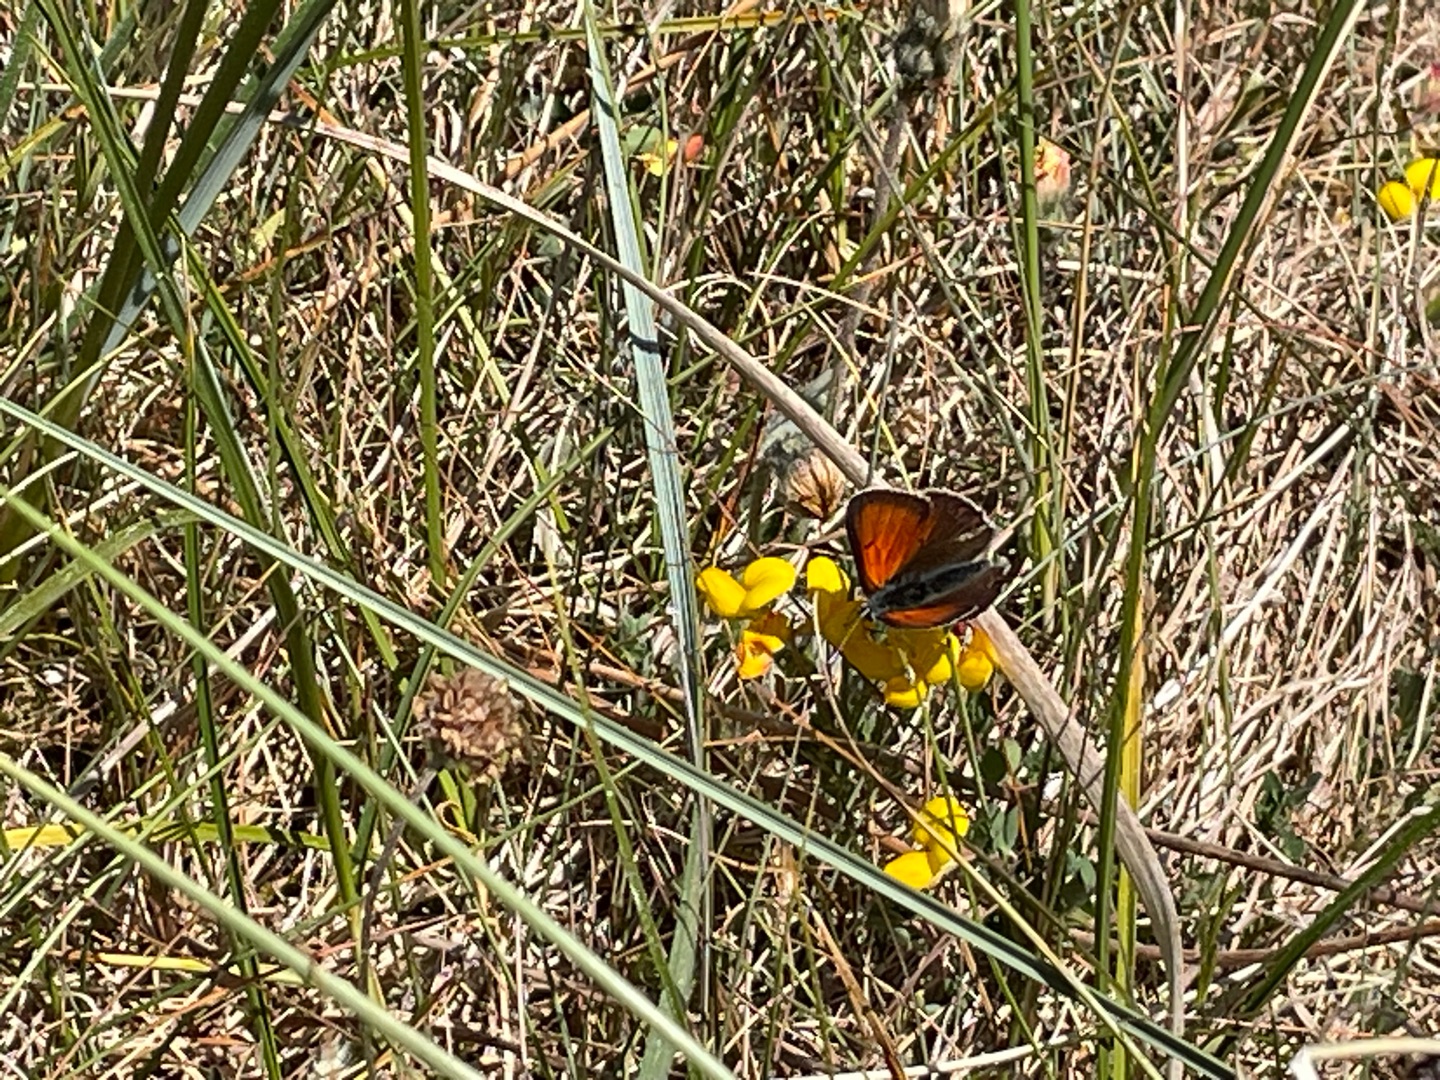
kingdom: Animalia
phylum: Arthropoda
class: Insecta
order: Lepidoptera
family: Lycaenidae
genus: Palaeochrysophanus
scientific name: Palaeochrysophanus hippothoe
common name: Violetrandet ildfugl
